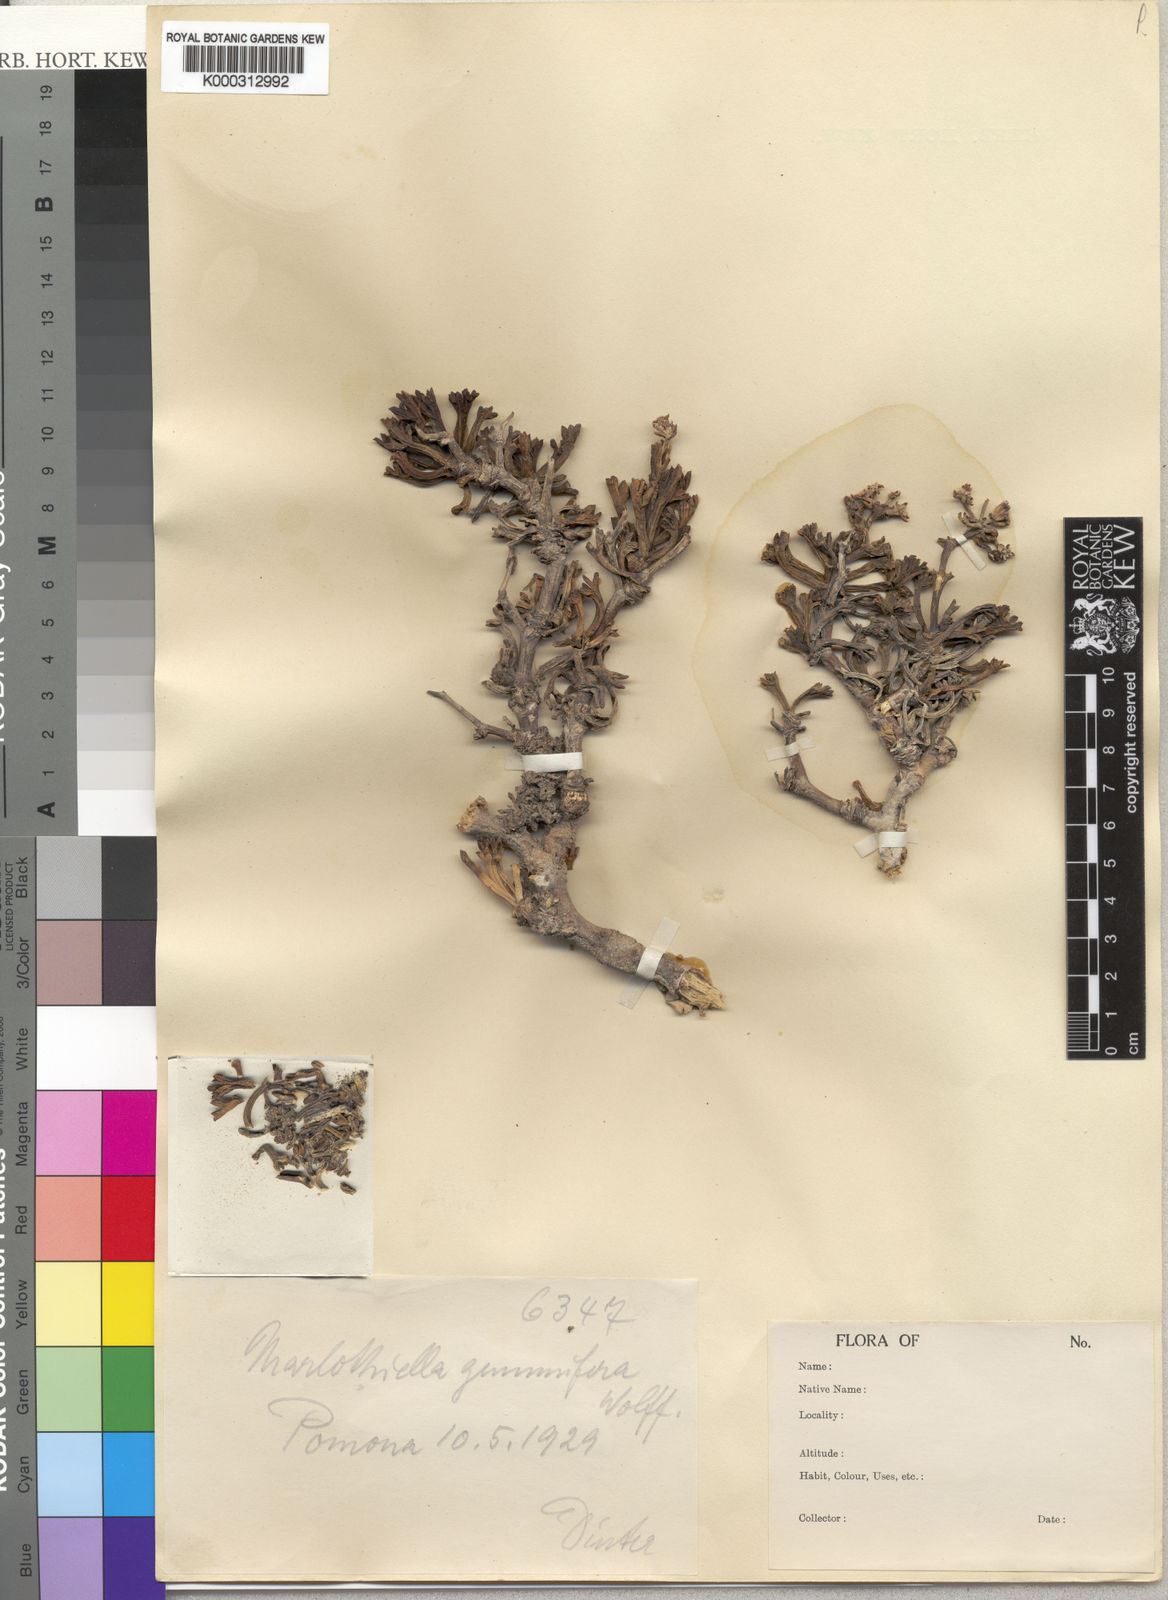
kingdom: Plantae
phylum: Tracheophyta
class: Magnoliopsida
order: Apiales
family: Apiaceae
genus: Marlothiella
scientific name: Marlothiella gummifera
